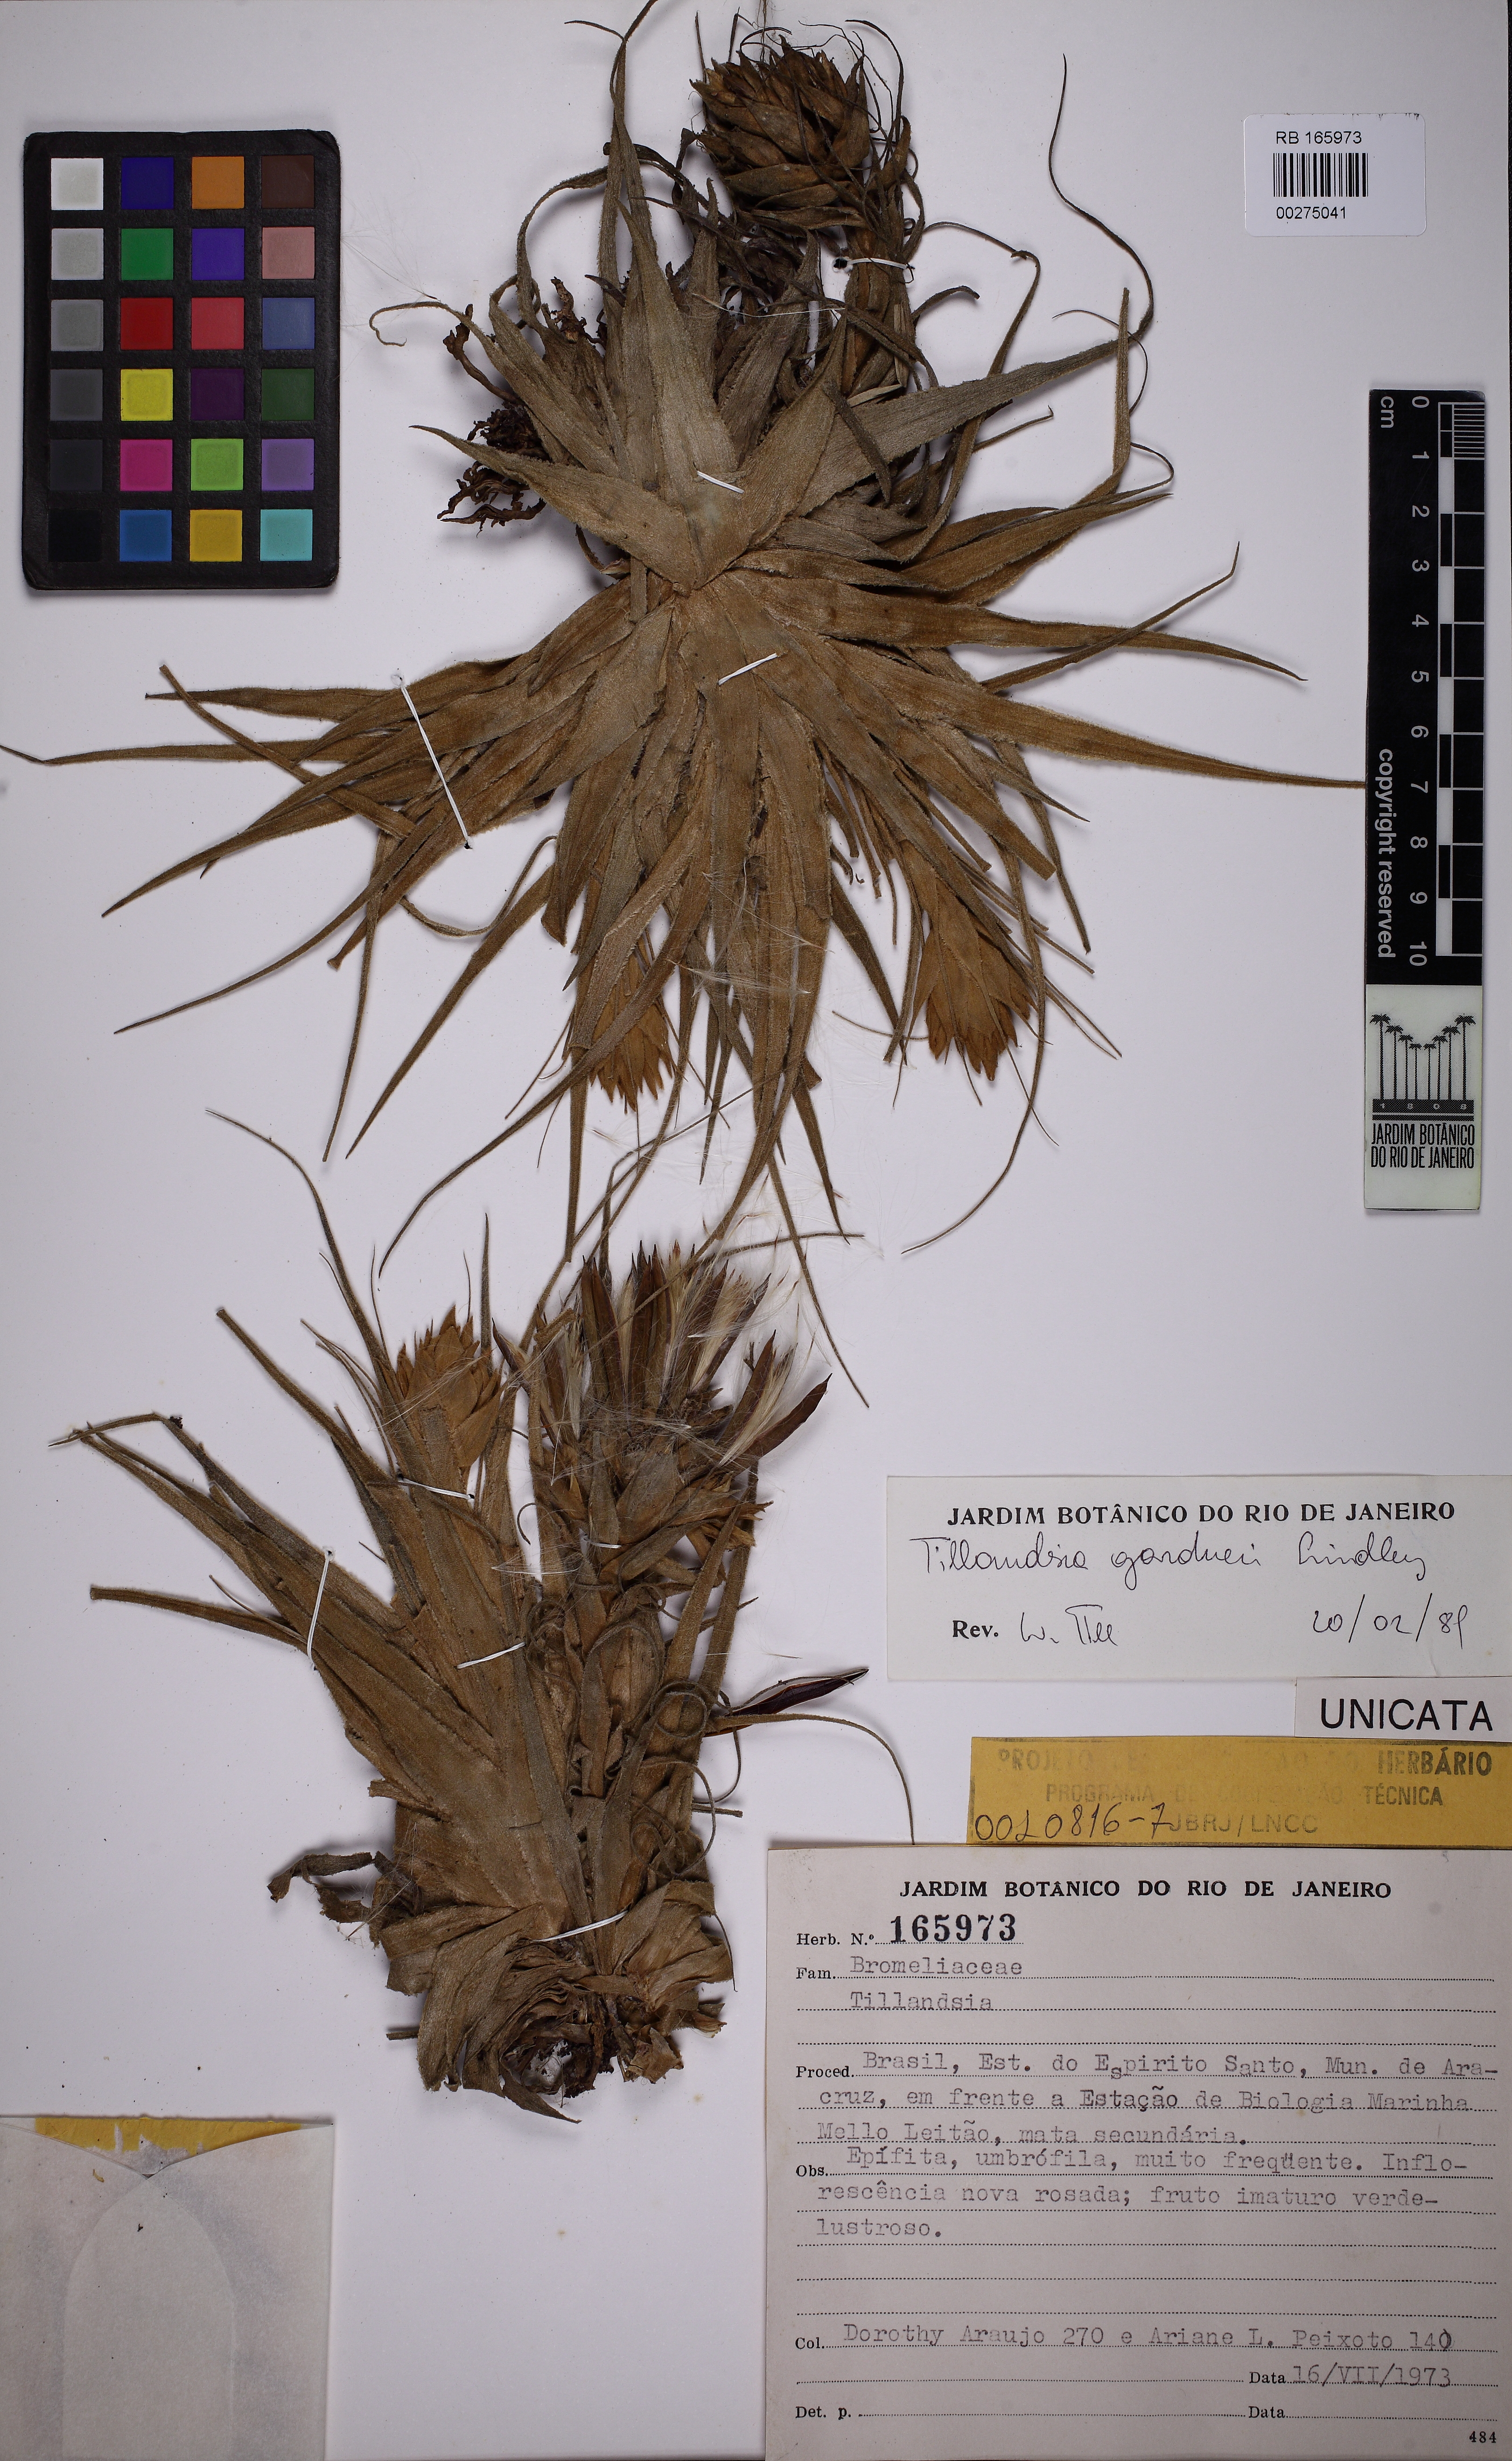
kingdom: Plantae
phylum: Tracheophyta
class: Liliopsida
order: Poales
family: Bromeliaceae
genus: Tillandsia
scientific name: Tillandsia gardneri
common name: Airplant
